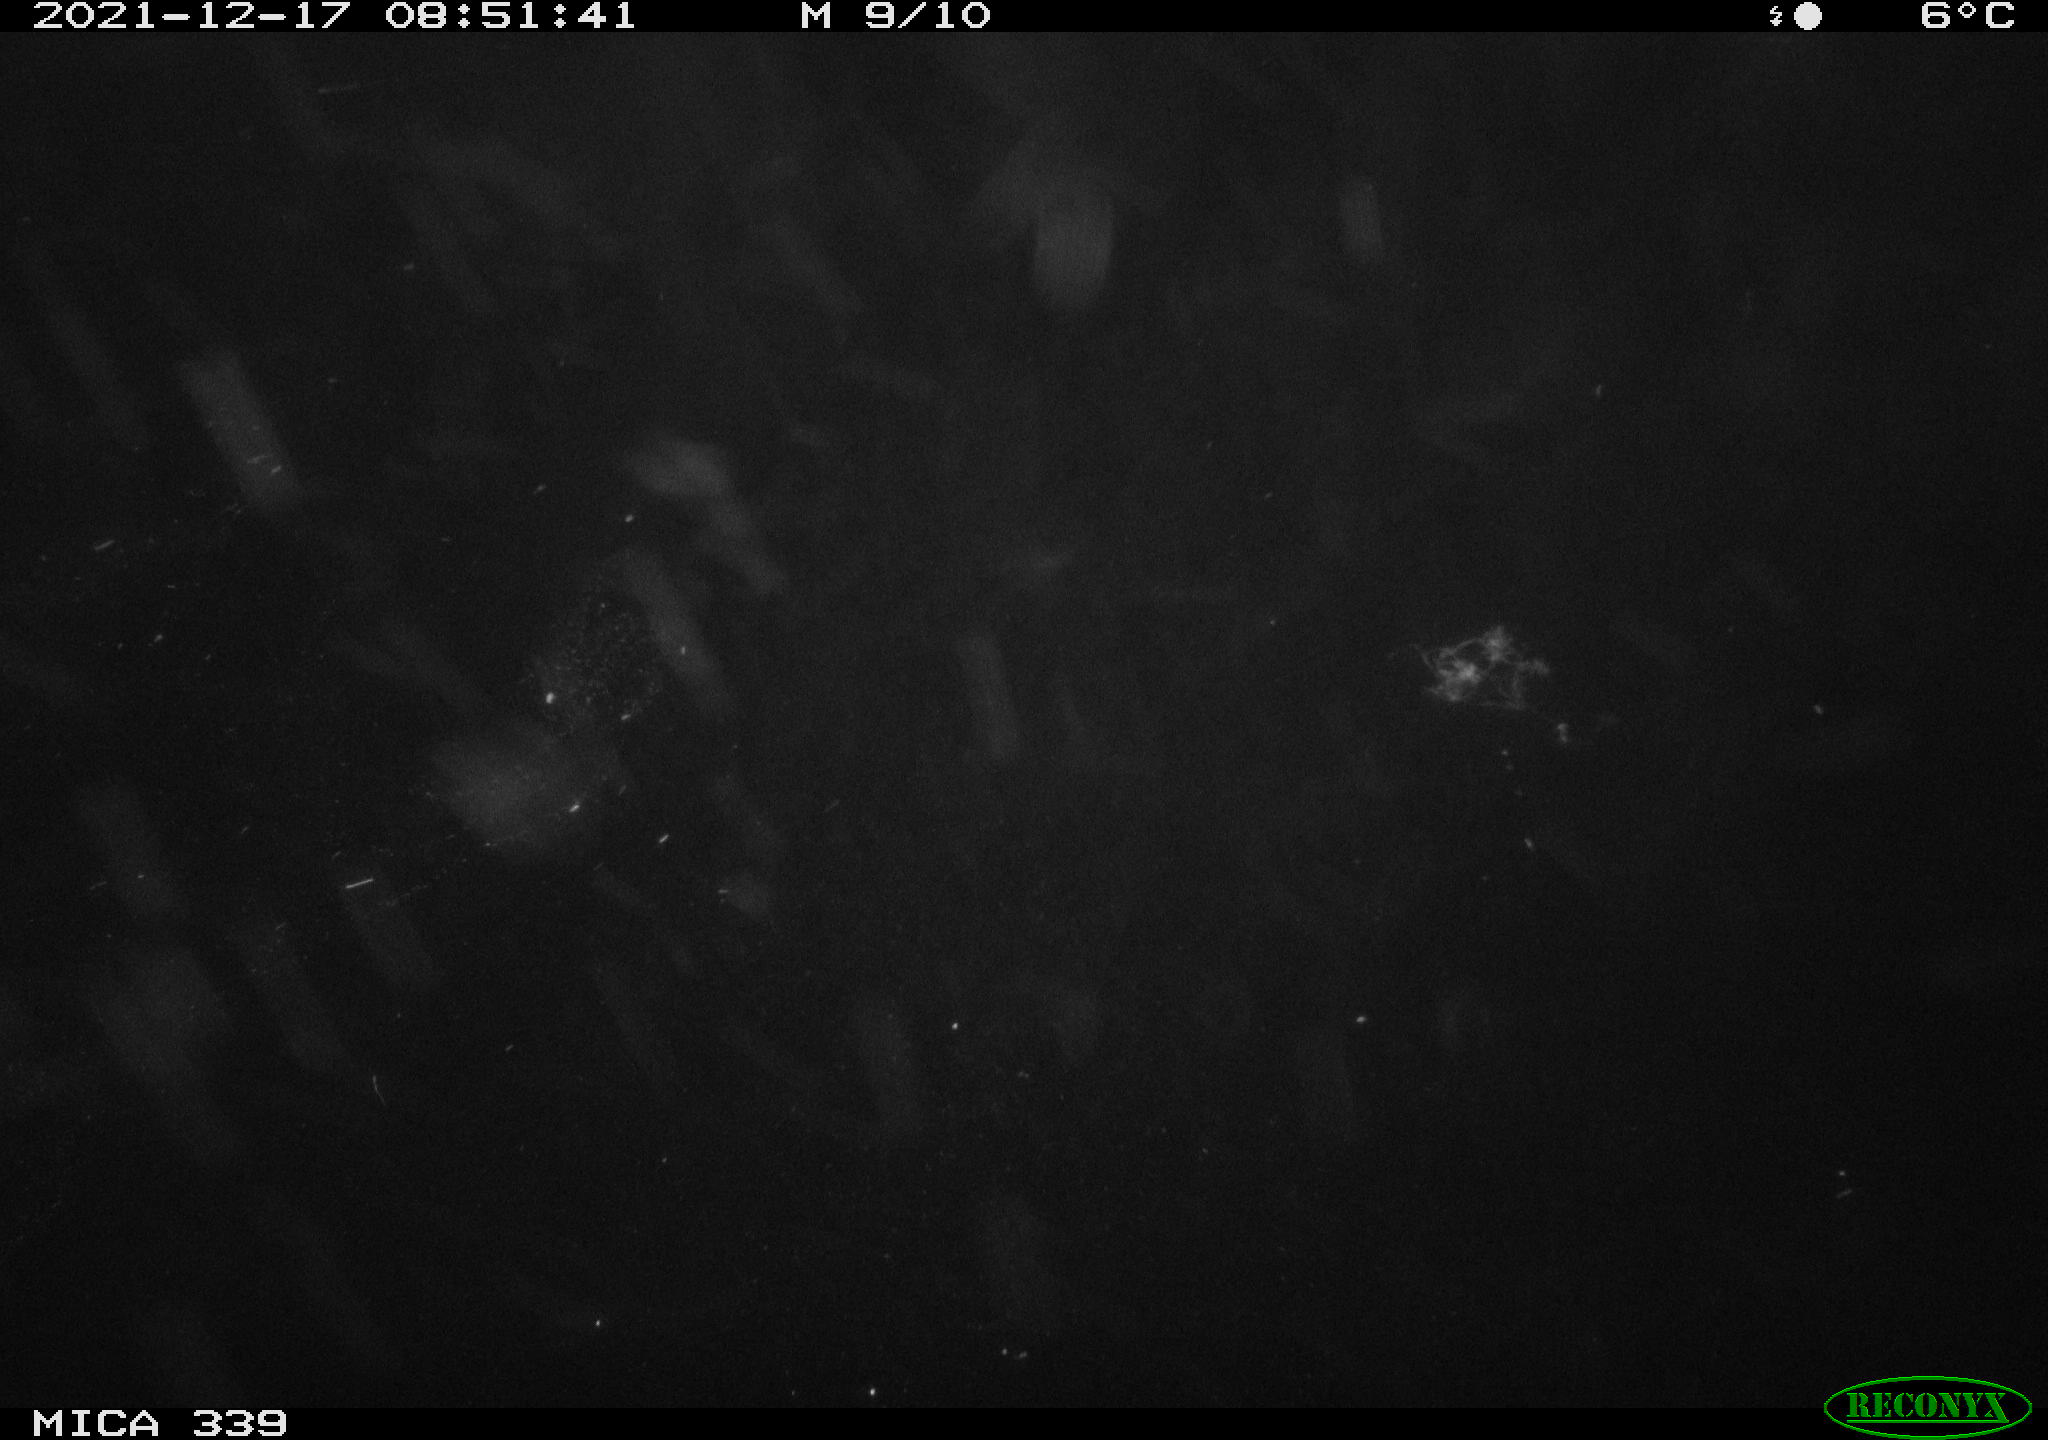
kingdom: Animalia
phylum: Chordata
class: Aves
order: Gruiformes
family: Rallidae
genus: Gallinula
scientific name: Gallinula chloropus
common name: Common moorhen
